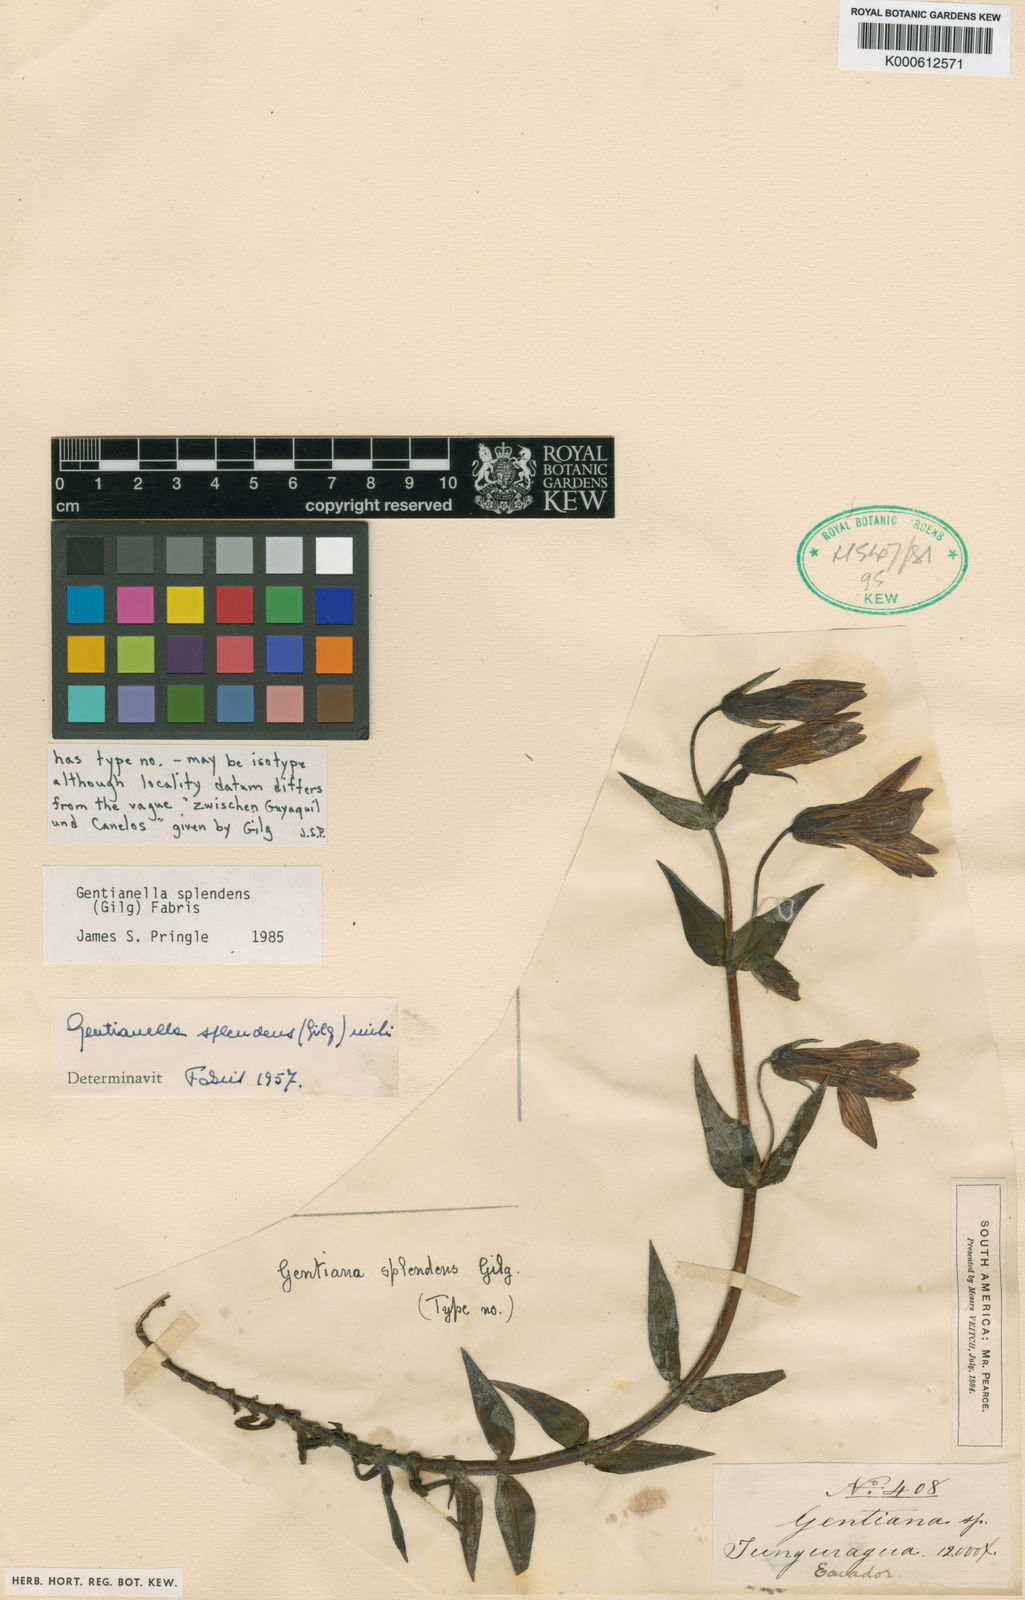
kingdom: Plantae
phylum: Tracheophyta
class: Magnoliopsida
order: Gentianales
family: Gentianaceae
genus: Gentianella
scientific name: Gentianella splendens
